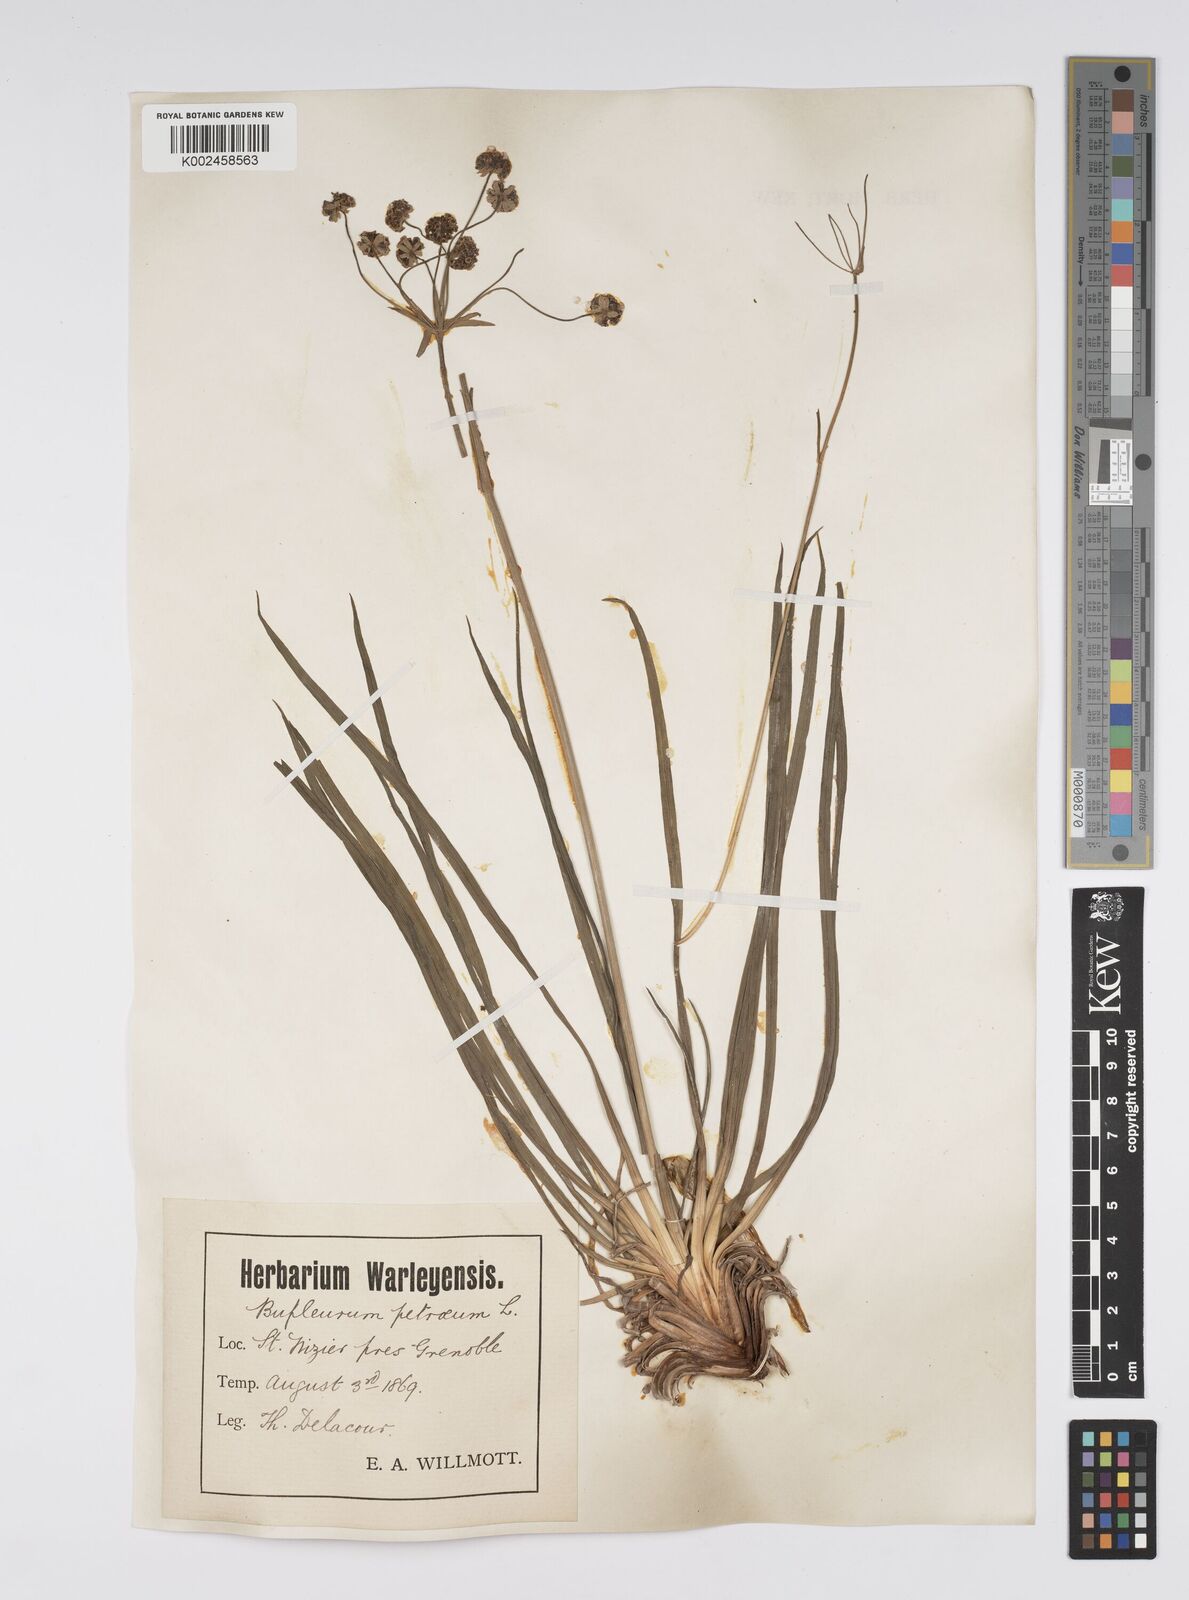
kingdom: Plantae
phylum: Tracheophyta
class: Magnoliopsida
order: Apiales
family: Apiaceae
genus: Bupleurum
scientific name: Bupleurum petraeum
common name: Rock hare's-ear
